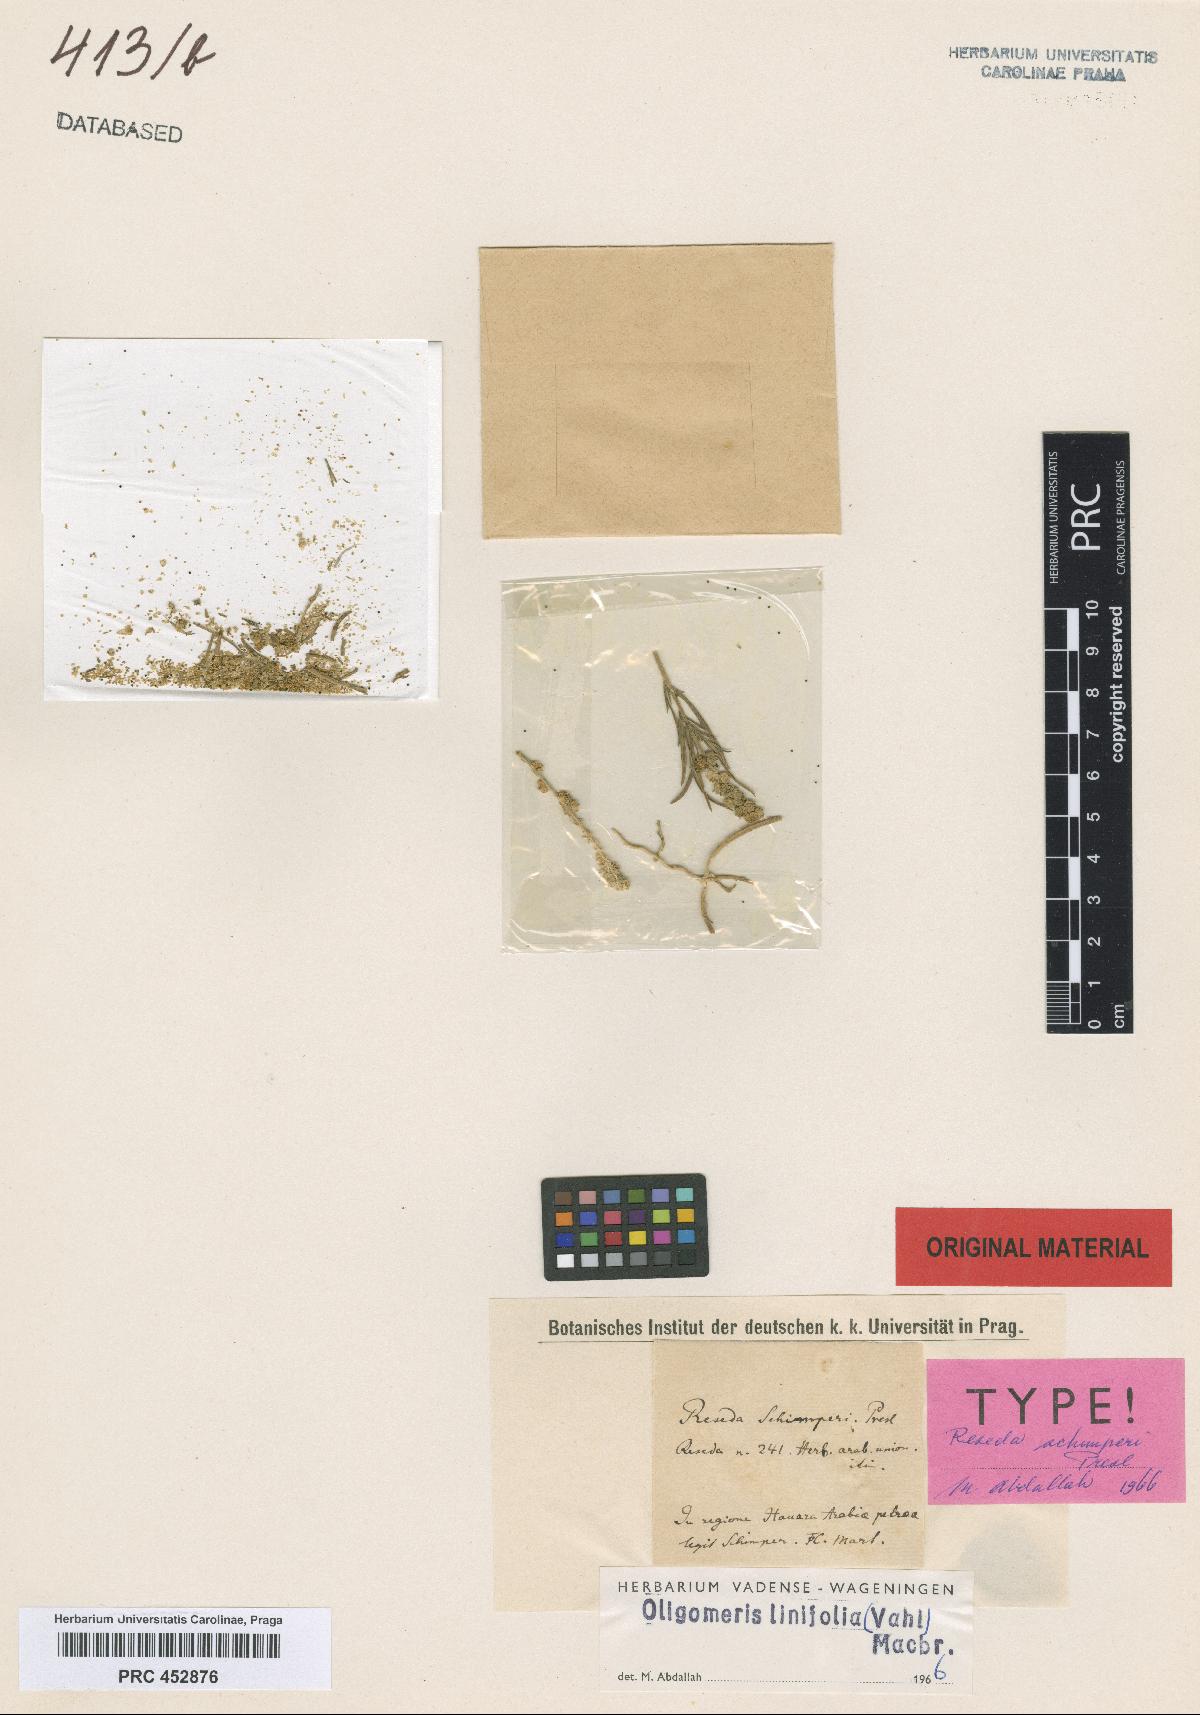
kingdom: Plantae
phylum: Tracheophyta
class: Magnoliopsida
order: Brassicales
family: Resedaceae
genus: Oligomeris
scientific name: Oligomeris linifolia
